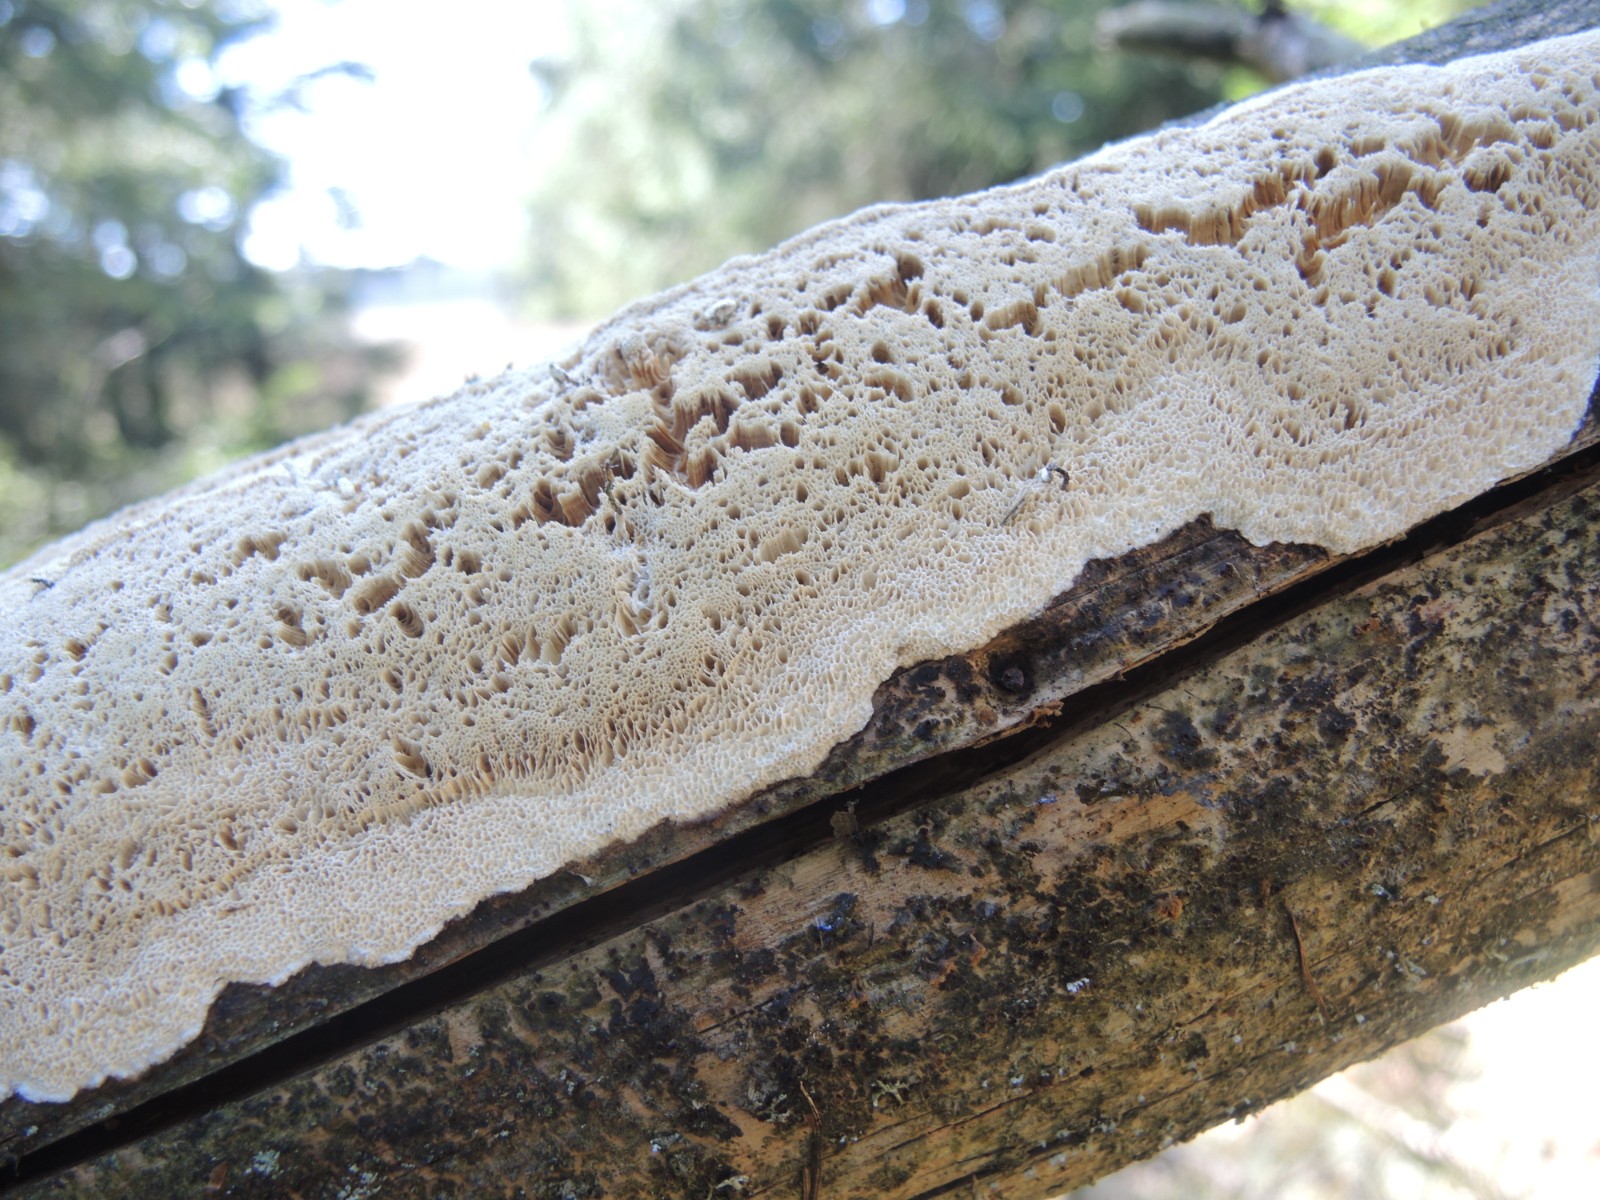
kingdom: Fungi
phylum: Basidiomycota
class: Agaricomycetes
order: Polyporales
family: Gelatoporiaceae
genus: Cinereomyces
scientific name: Cinereomyces lindbladii
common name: almindelig gråporesvamp
